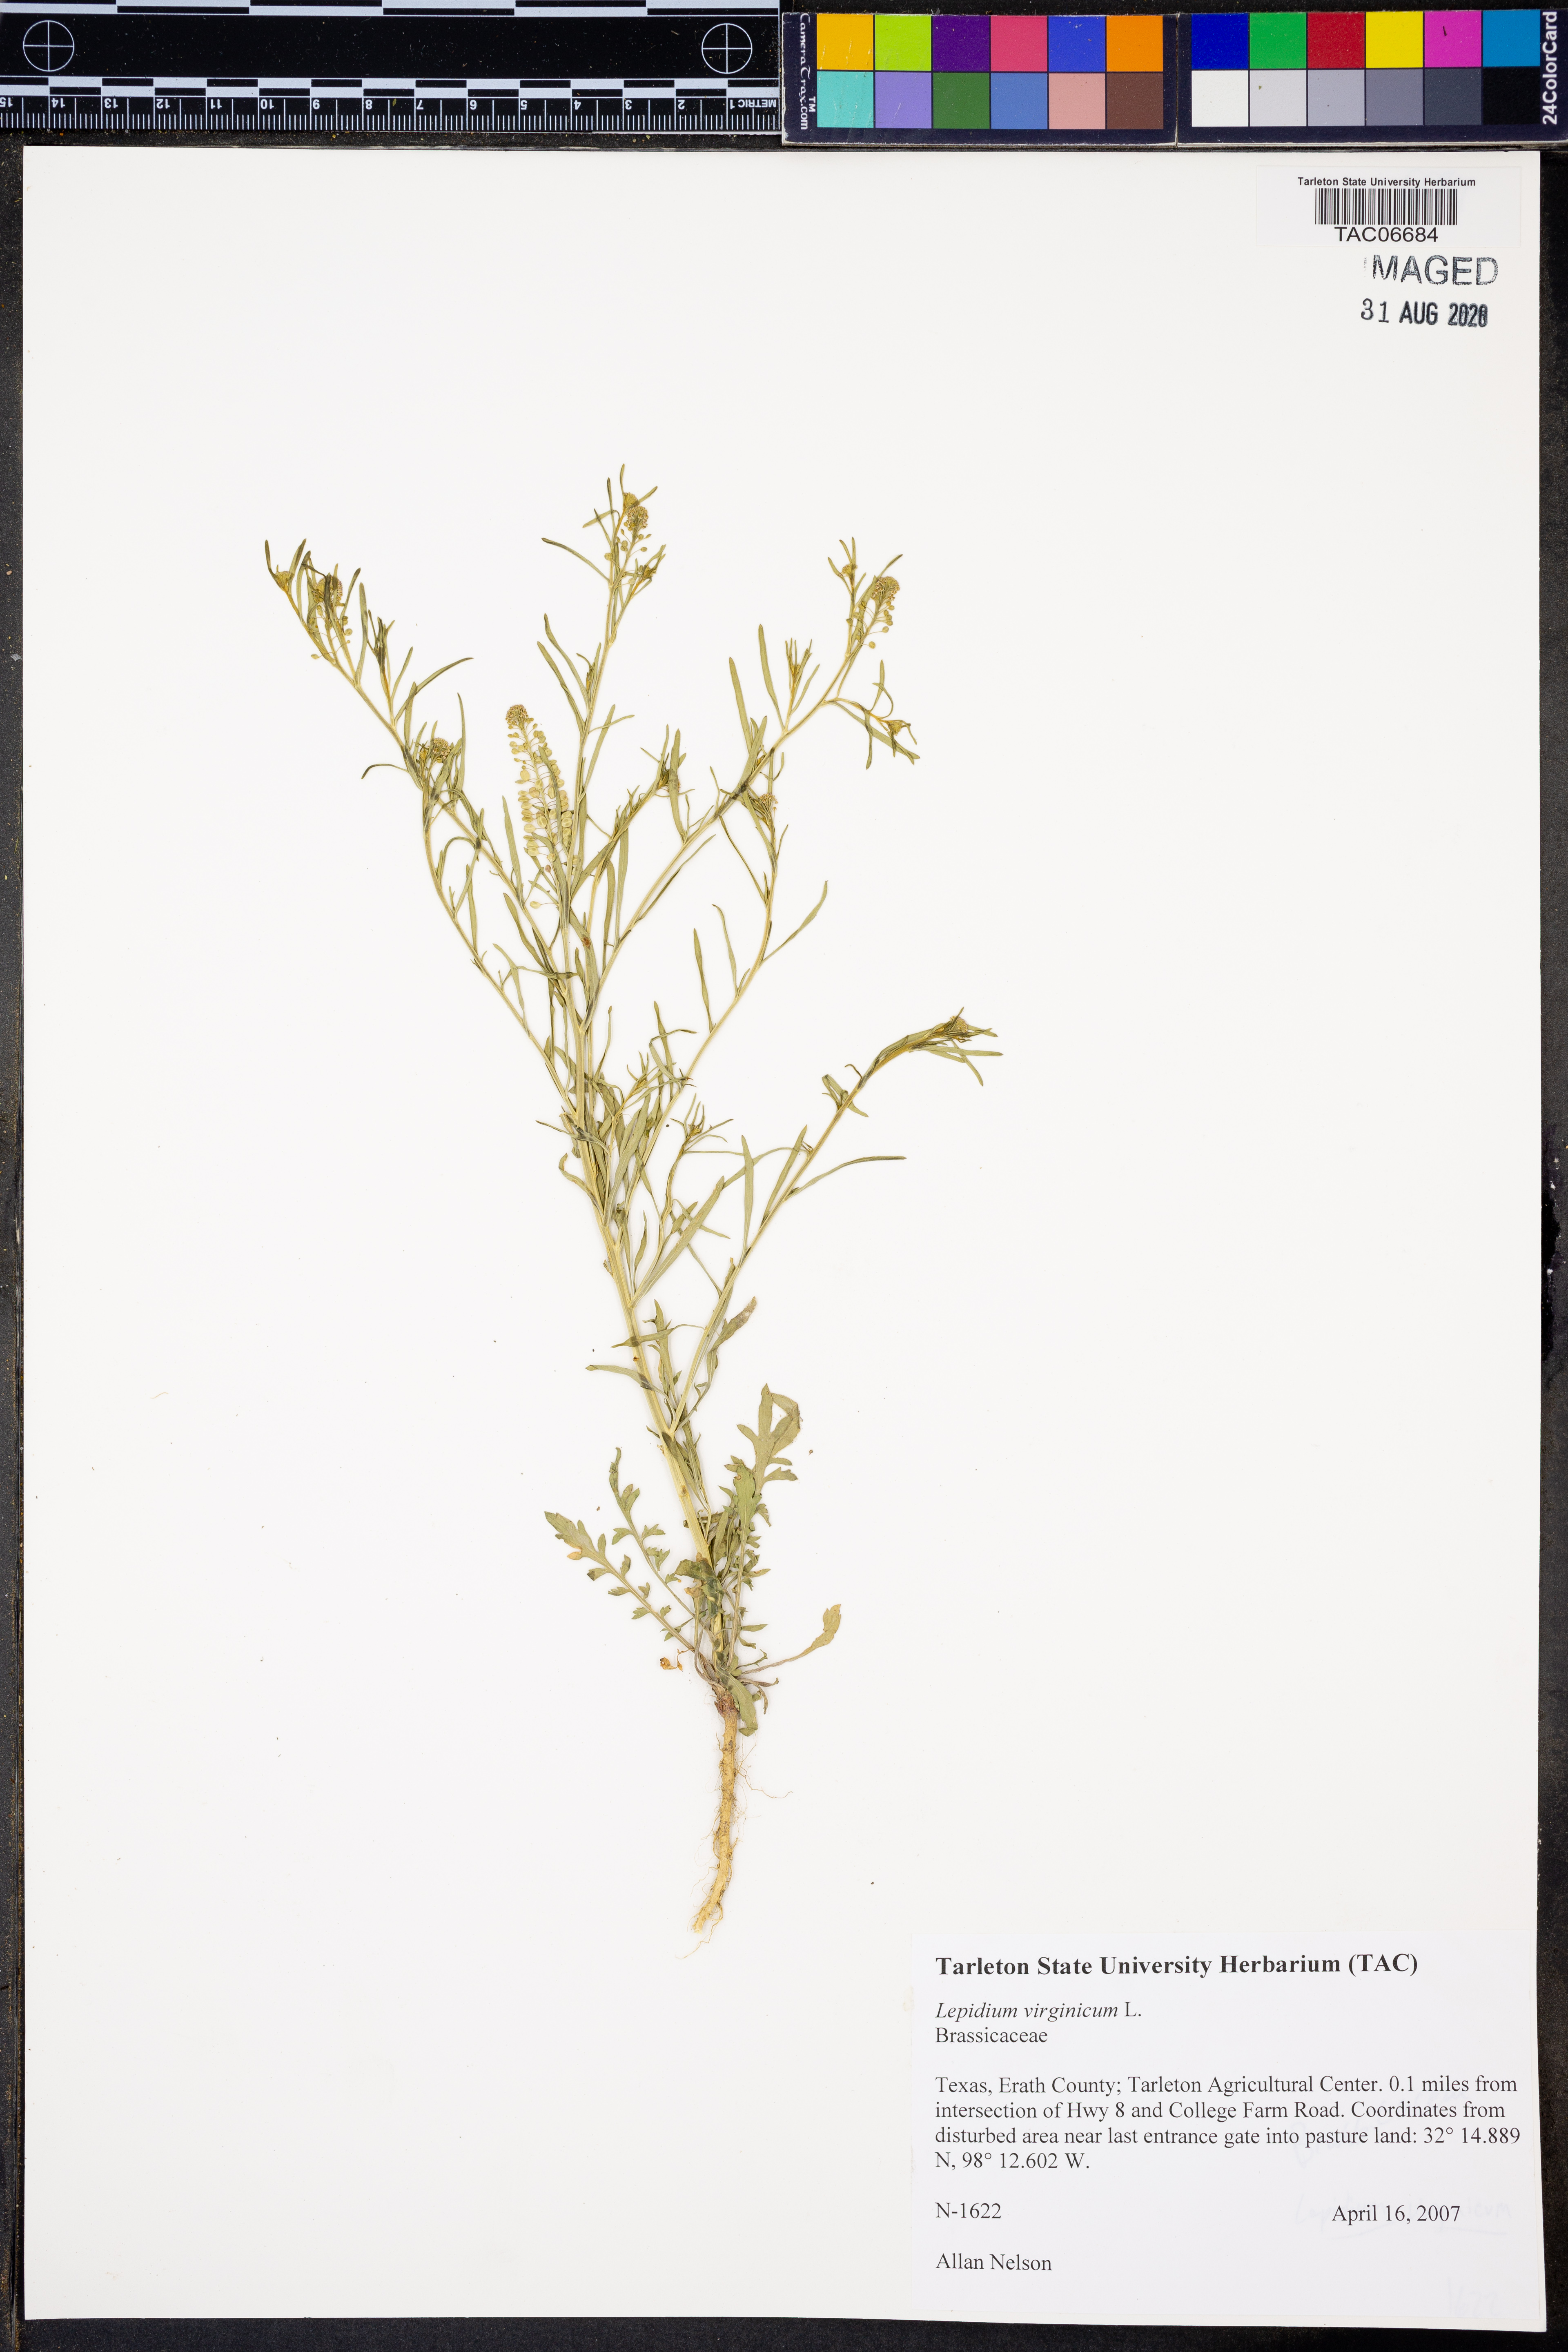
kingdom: Plantae
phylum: Tracheophyta
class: Magnoliopsida
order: Brassicales
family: Brassicaceae
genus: Lepidium
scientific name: Lepidium virginicum
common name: Least pepperwort
